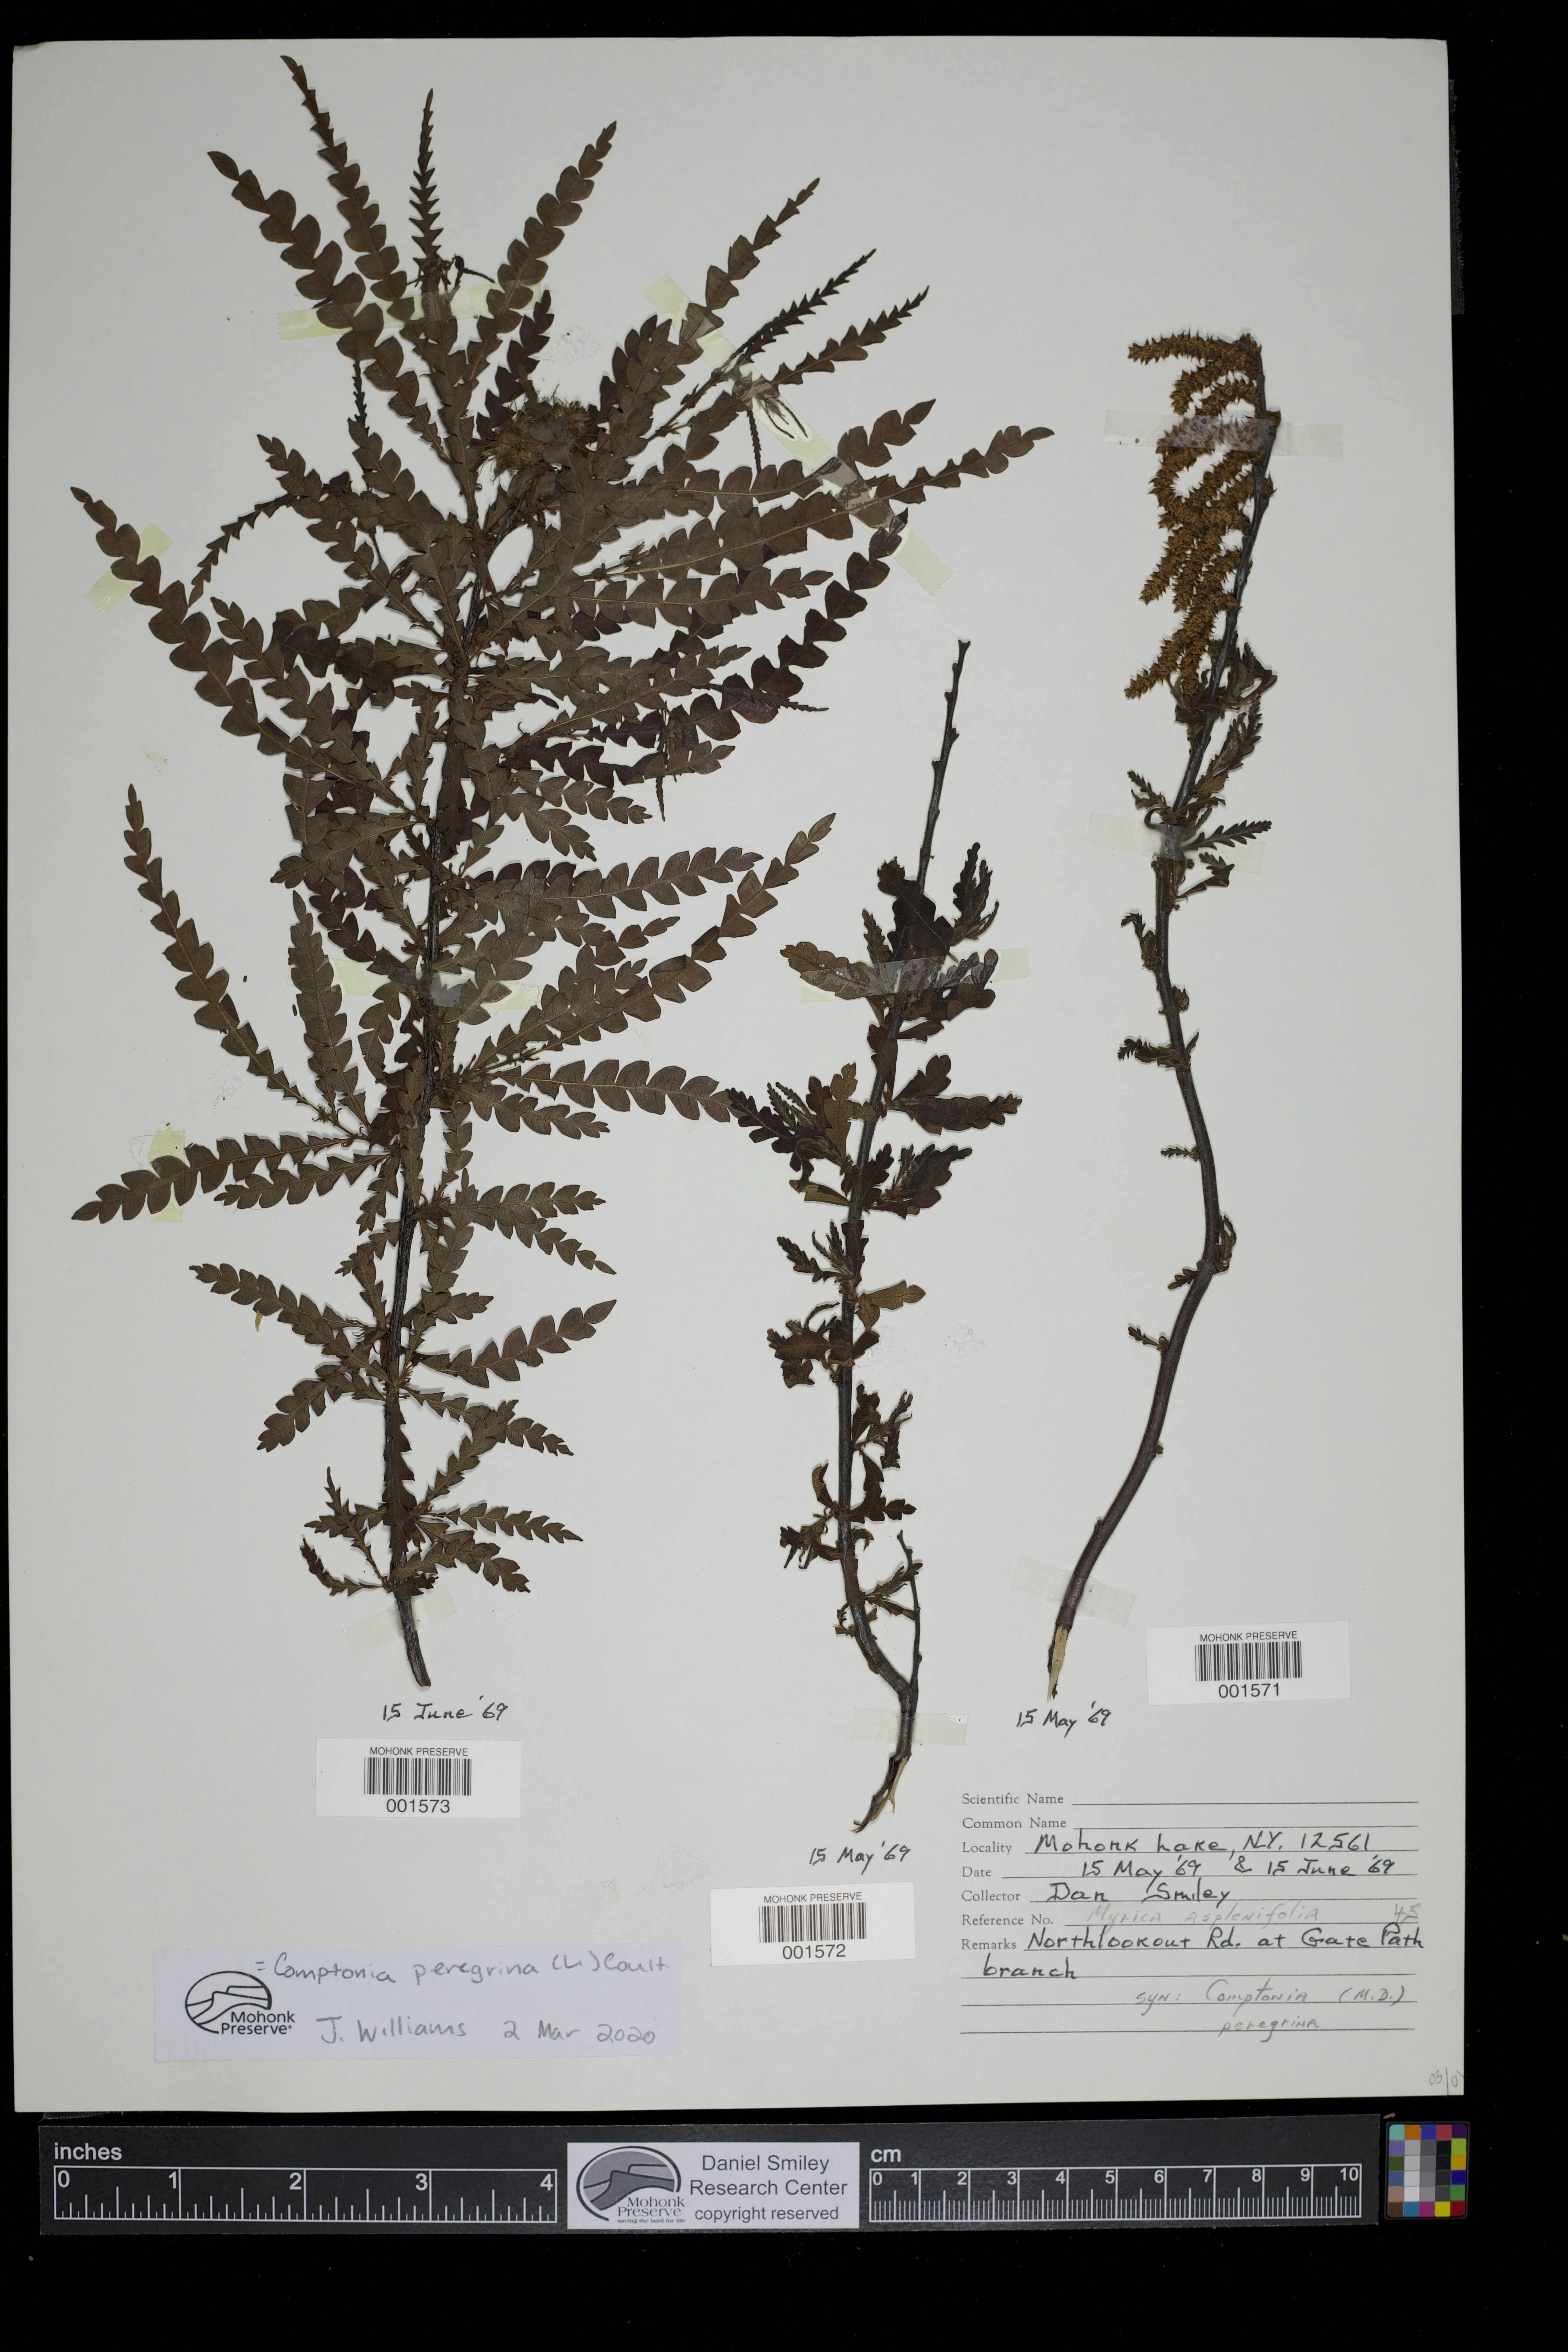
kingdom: Plantae
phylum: Tracheophyta
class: Magnoliopsida
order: Fagales
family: Myricaceae
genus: Comptonia
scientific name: Comptonia peregrina
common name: Sweet-fern
